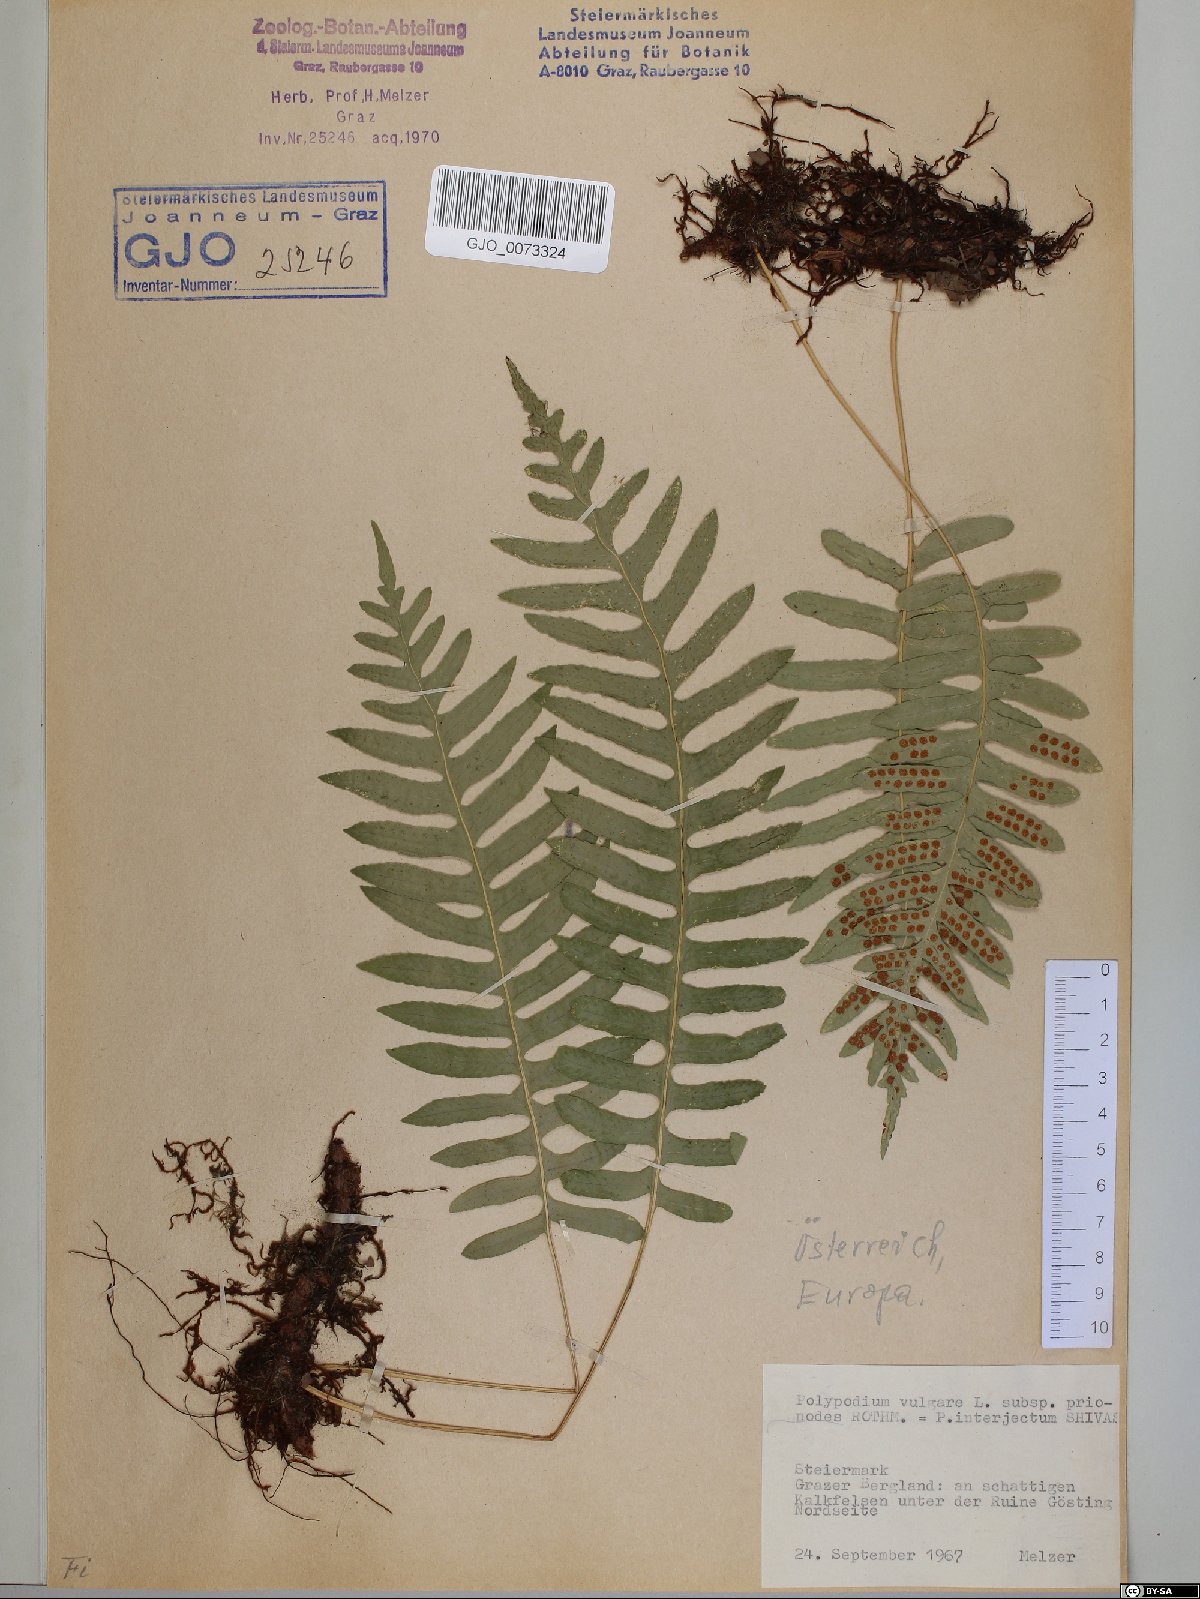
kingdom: Plantae
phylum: Tracheophyta
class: Polypodiopsida
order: Polypodiales
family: Polypodiaceae
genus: Polypodium
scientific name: Polypodium interjectum
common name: Intermediate polypody
